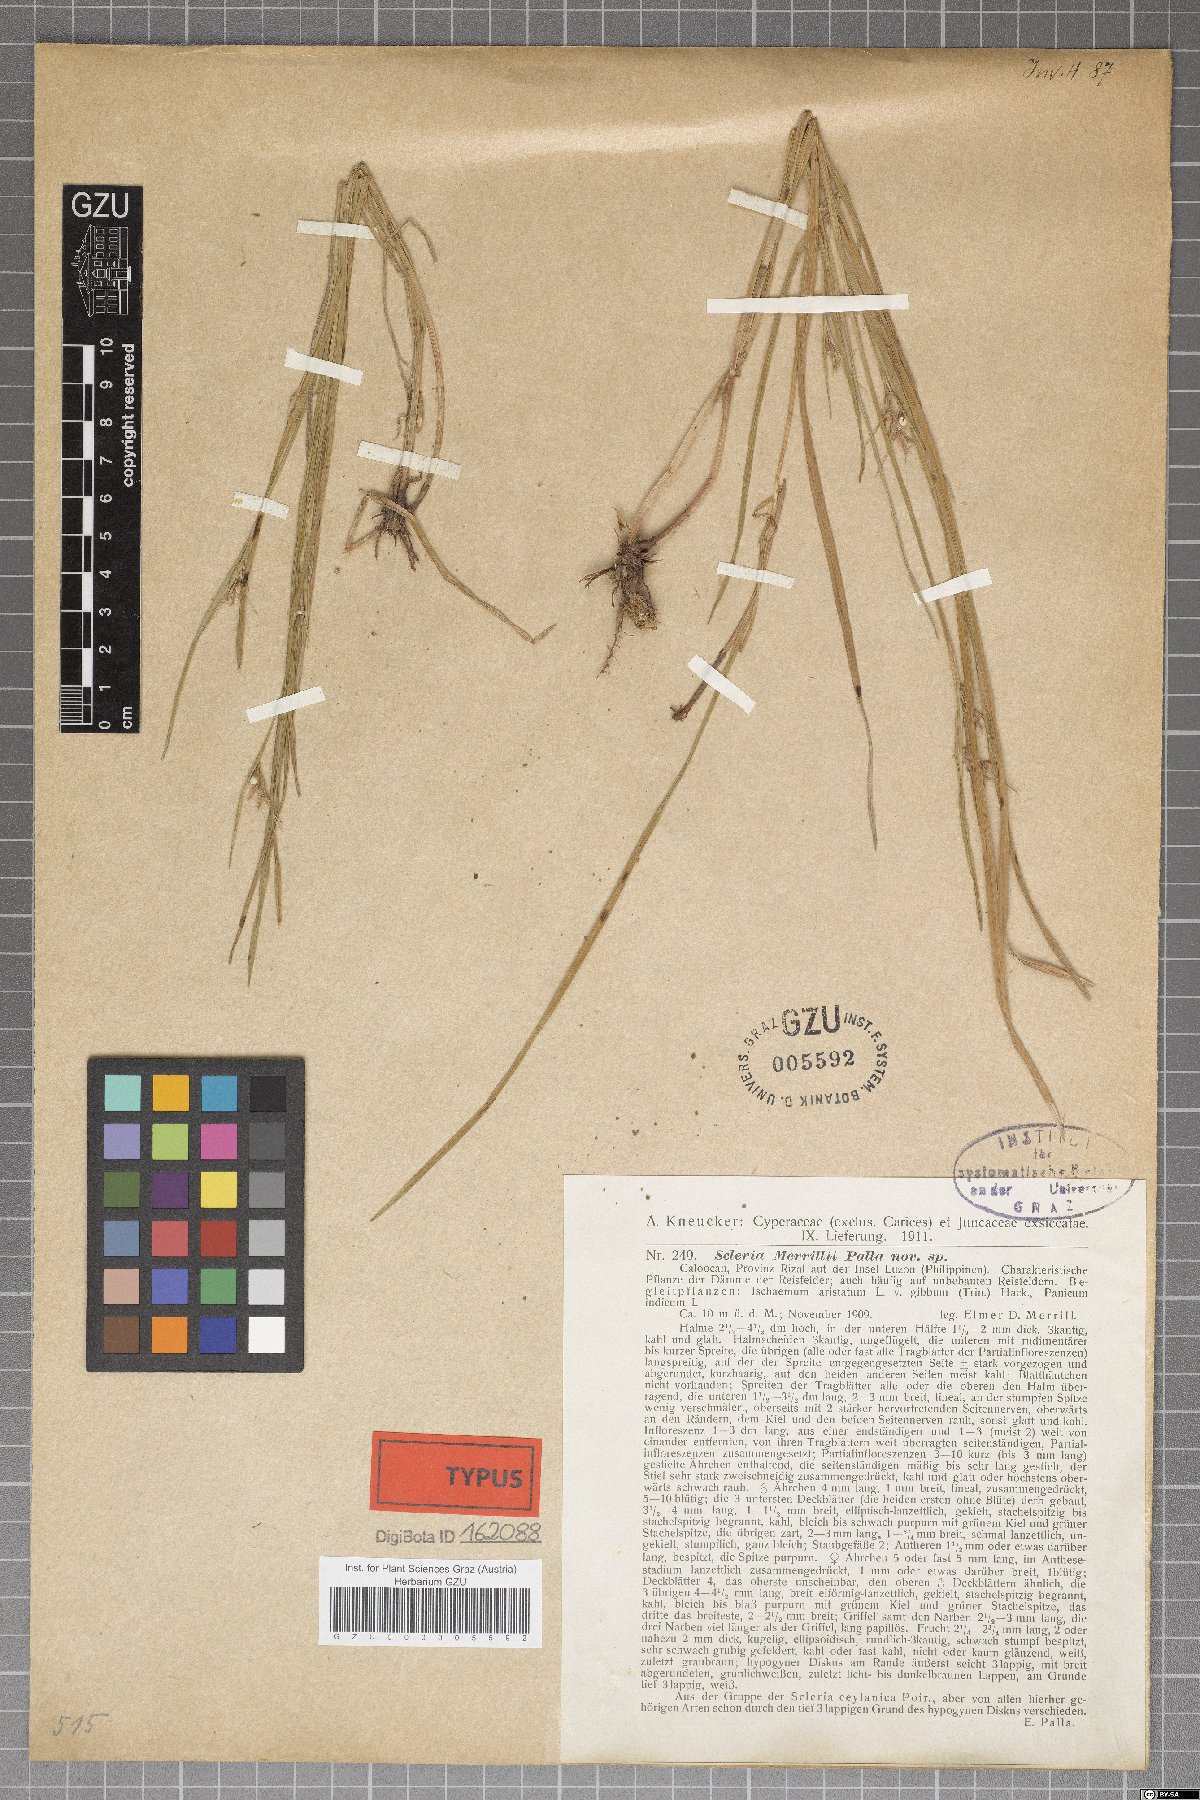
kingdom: Plantae
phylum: Tracheophyta
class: Liliopsida
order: Poales
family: Cyperaceae
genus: Scleria
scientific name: Scleria novae-hollandiae
